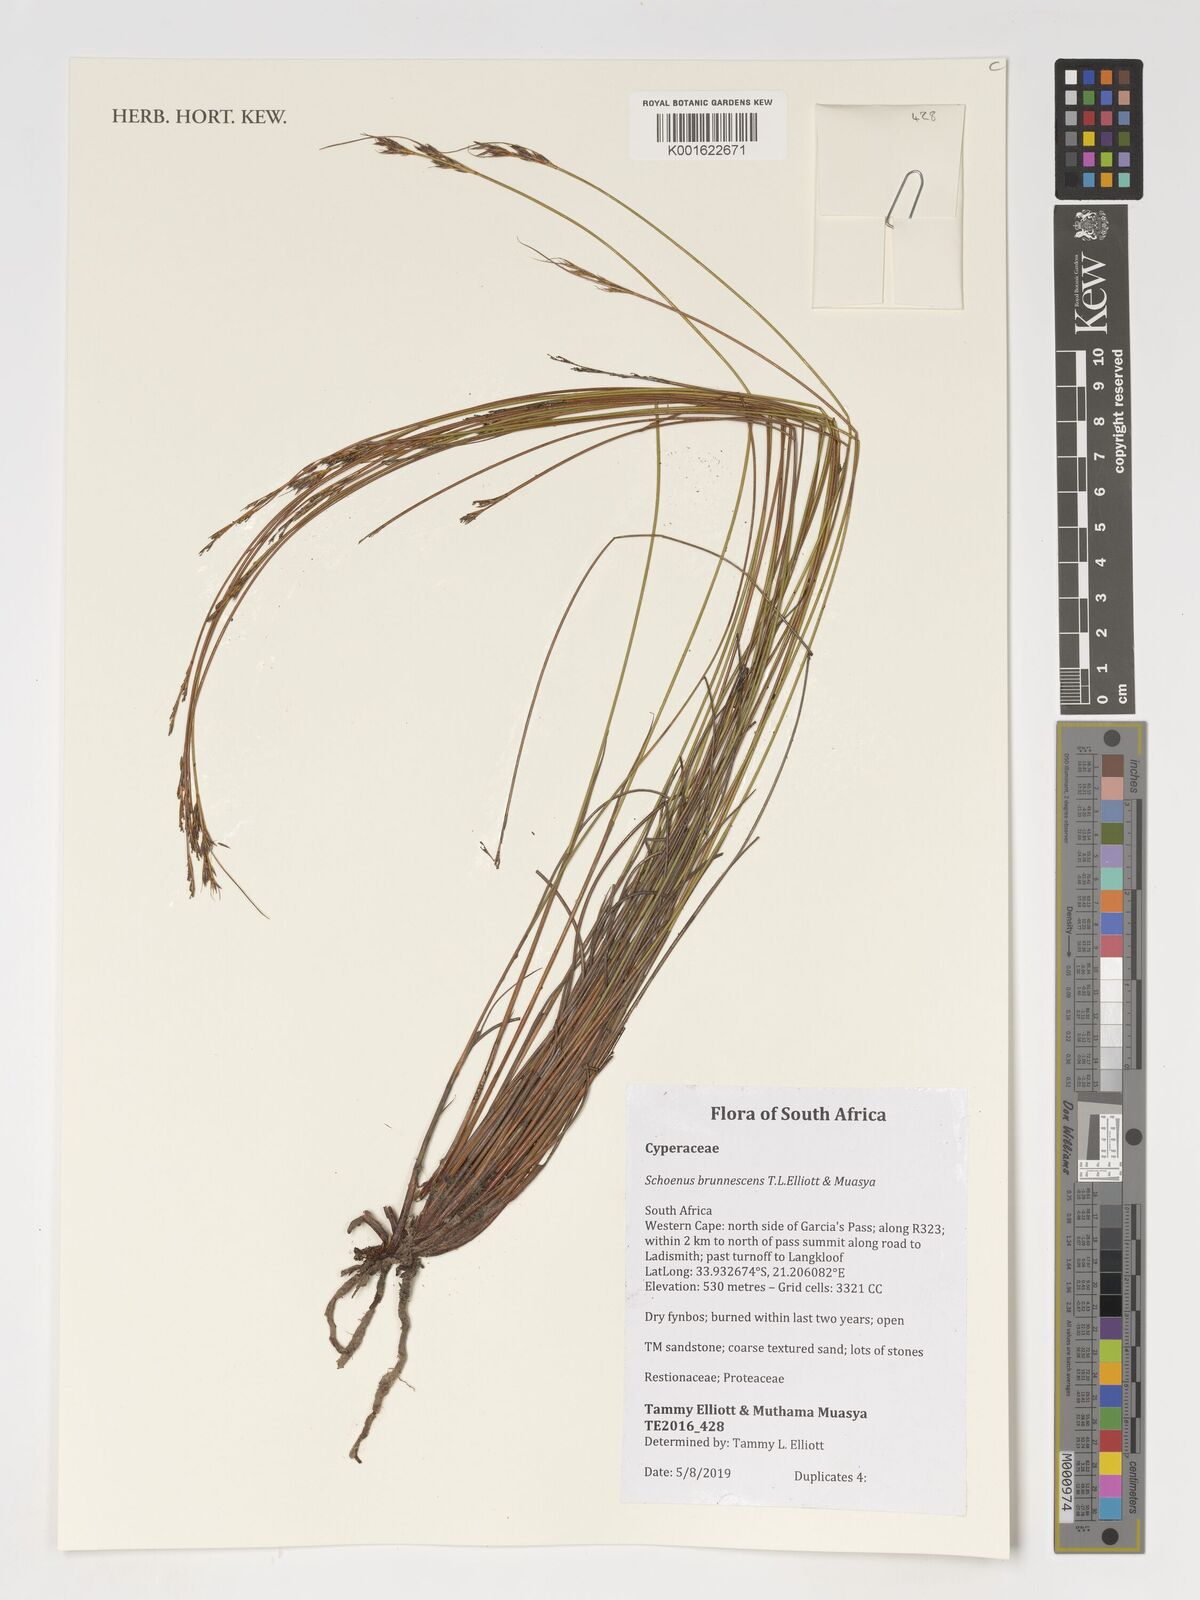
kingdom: Plantae
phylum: Tracheophyta
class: Liliopsida
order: Poales
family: Cyperaceae
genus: Schoenus
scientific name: Schoenus
